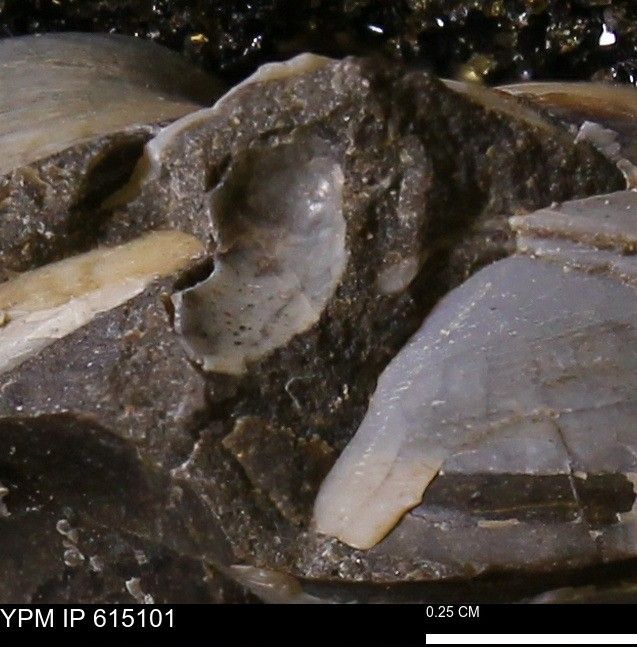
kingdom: Animalia
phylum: Mollusca
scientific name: Mollusca
